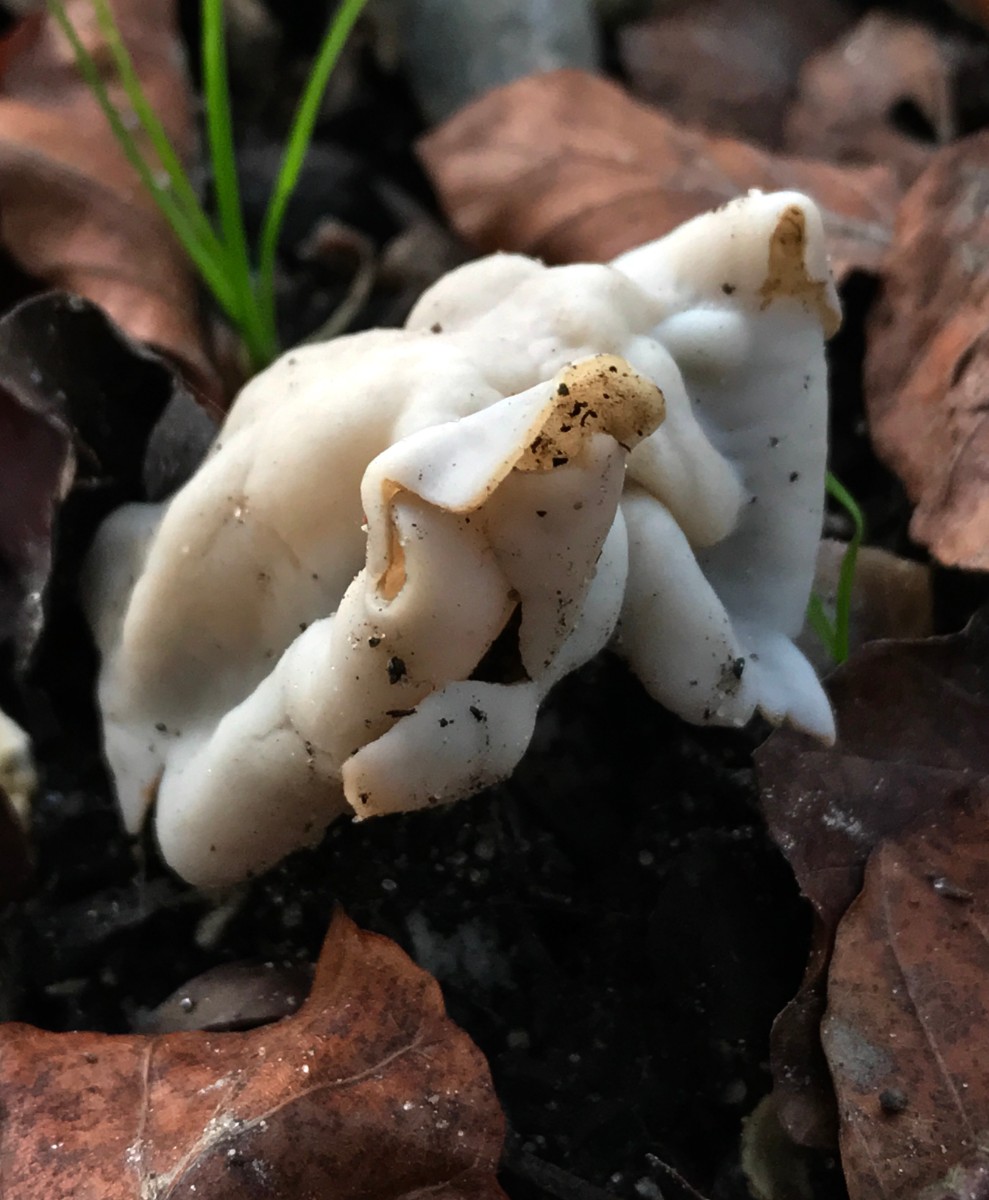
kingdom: Fungi
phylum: Ascomycota
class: Pezizomycetes
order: Pezizales
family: Helvellaceae
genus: Helvella
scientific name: Helvella crispa
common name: kruset foldhat
